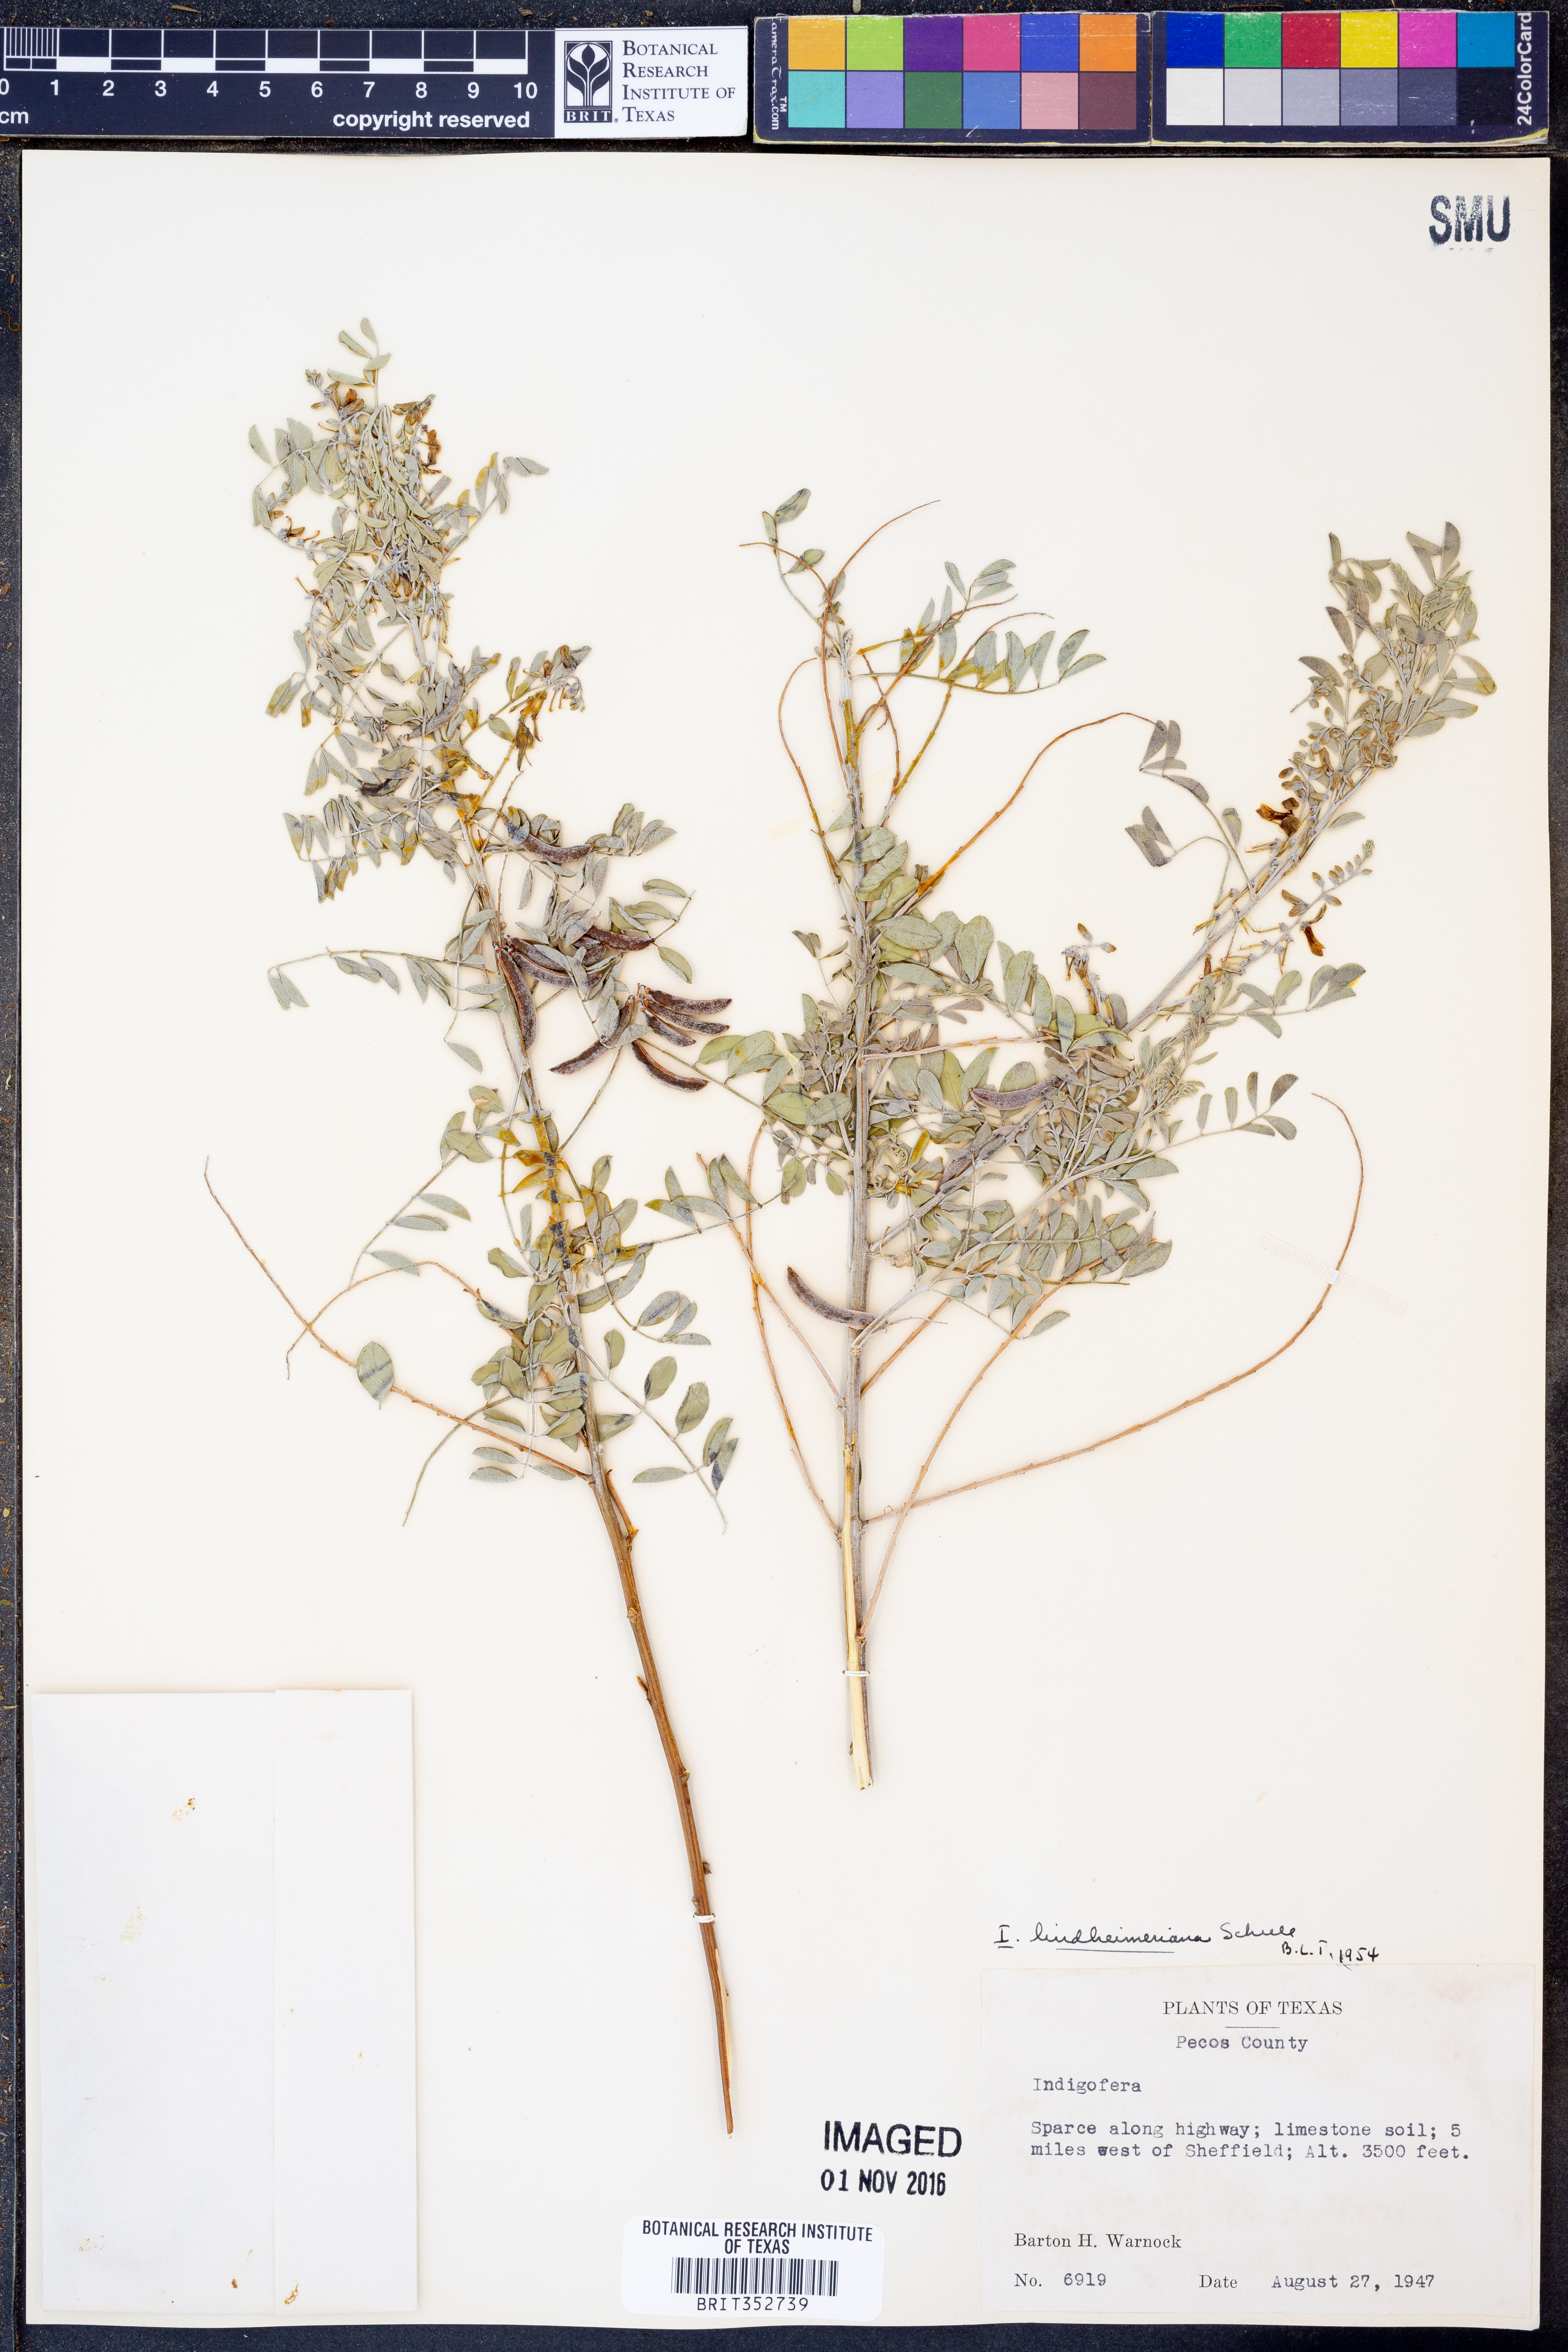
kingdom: Plantae
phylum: Tracheophyta
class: Magnoliopsida
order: Fabales
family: Fabaceae
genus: Indigofera
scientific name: Indigofera lindheimeriana
